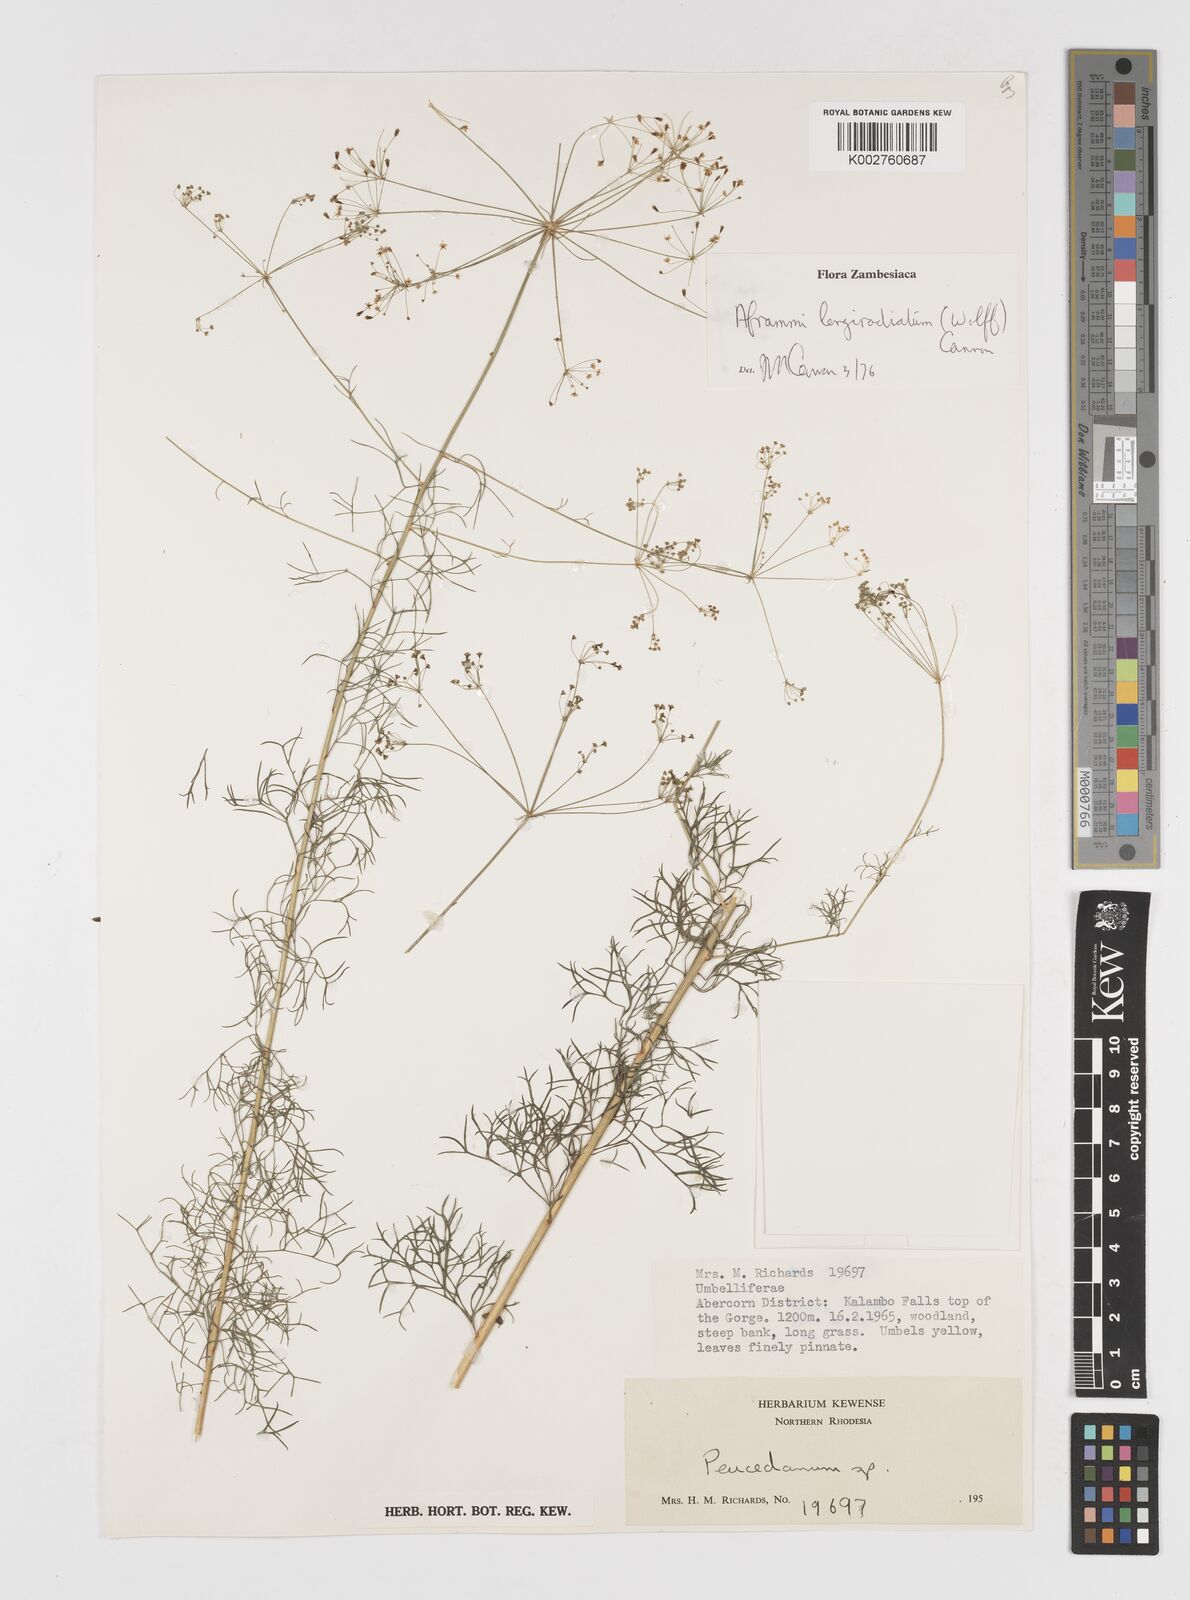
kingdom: Plantae
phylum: Tracheophyta
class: Magnoliopsida
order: Apiales
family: Apiaceae
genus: Physotrichia
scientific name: Physotrichia longiradiatum
